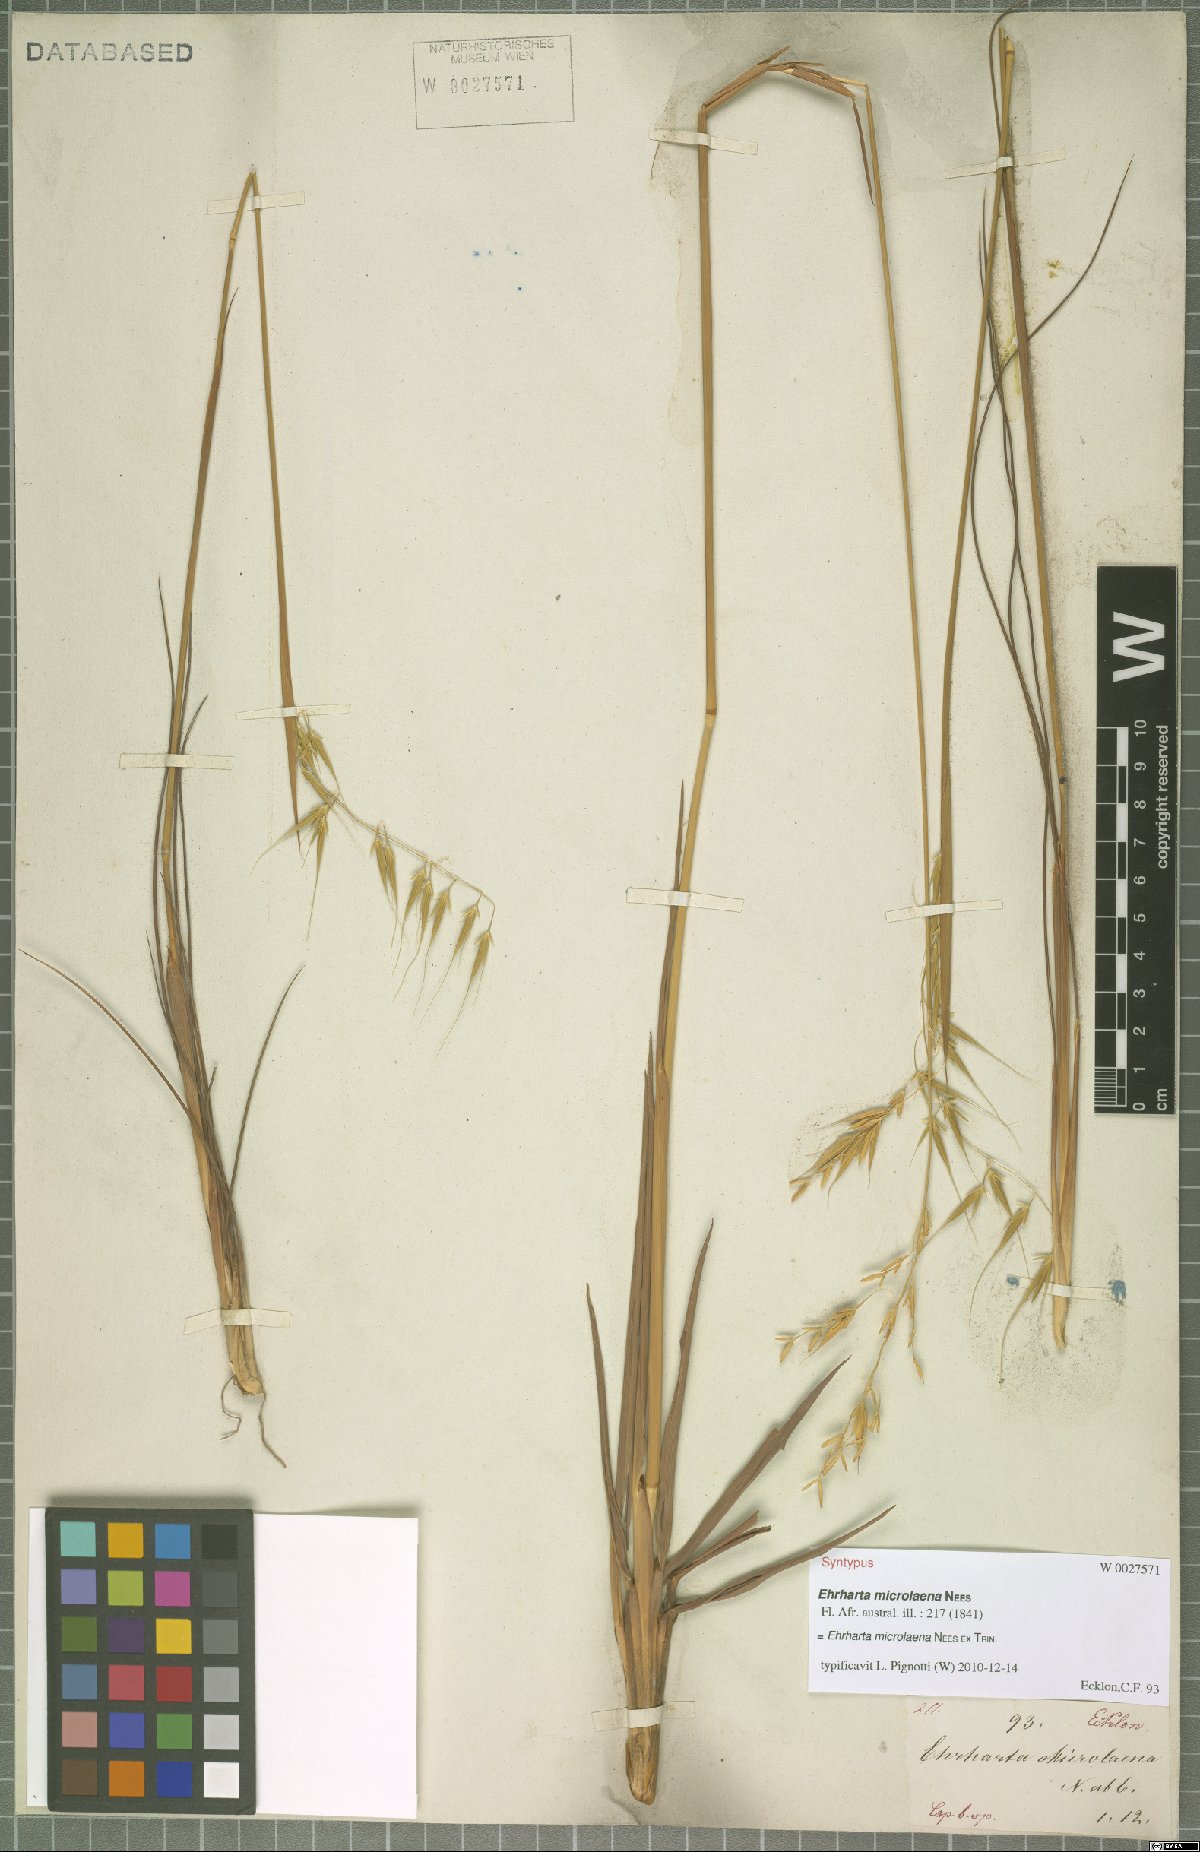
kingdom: Plantae
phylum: Tracheophyta
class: Liliopsida
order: Poales
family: Poaceae
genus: Ehrharta
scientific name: Ehrharta microlaena
